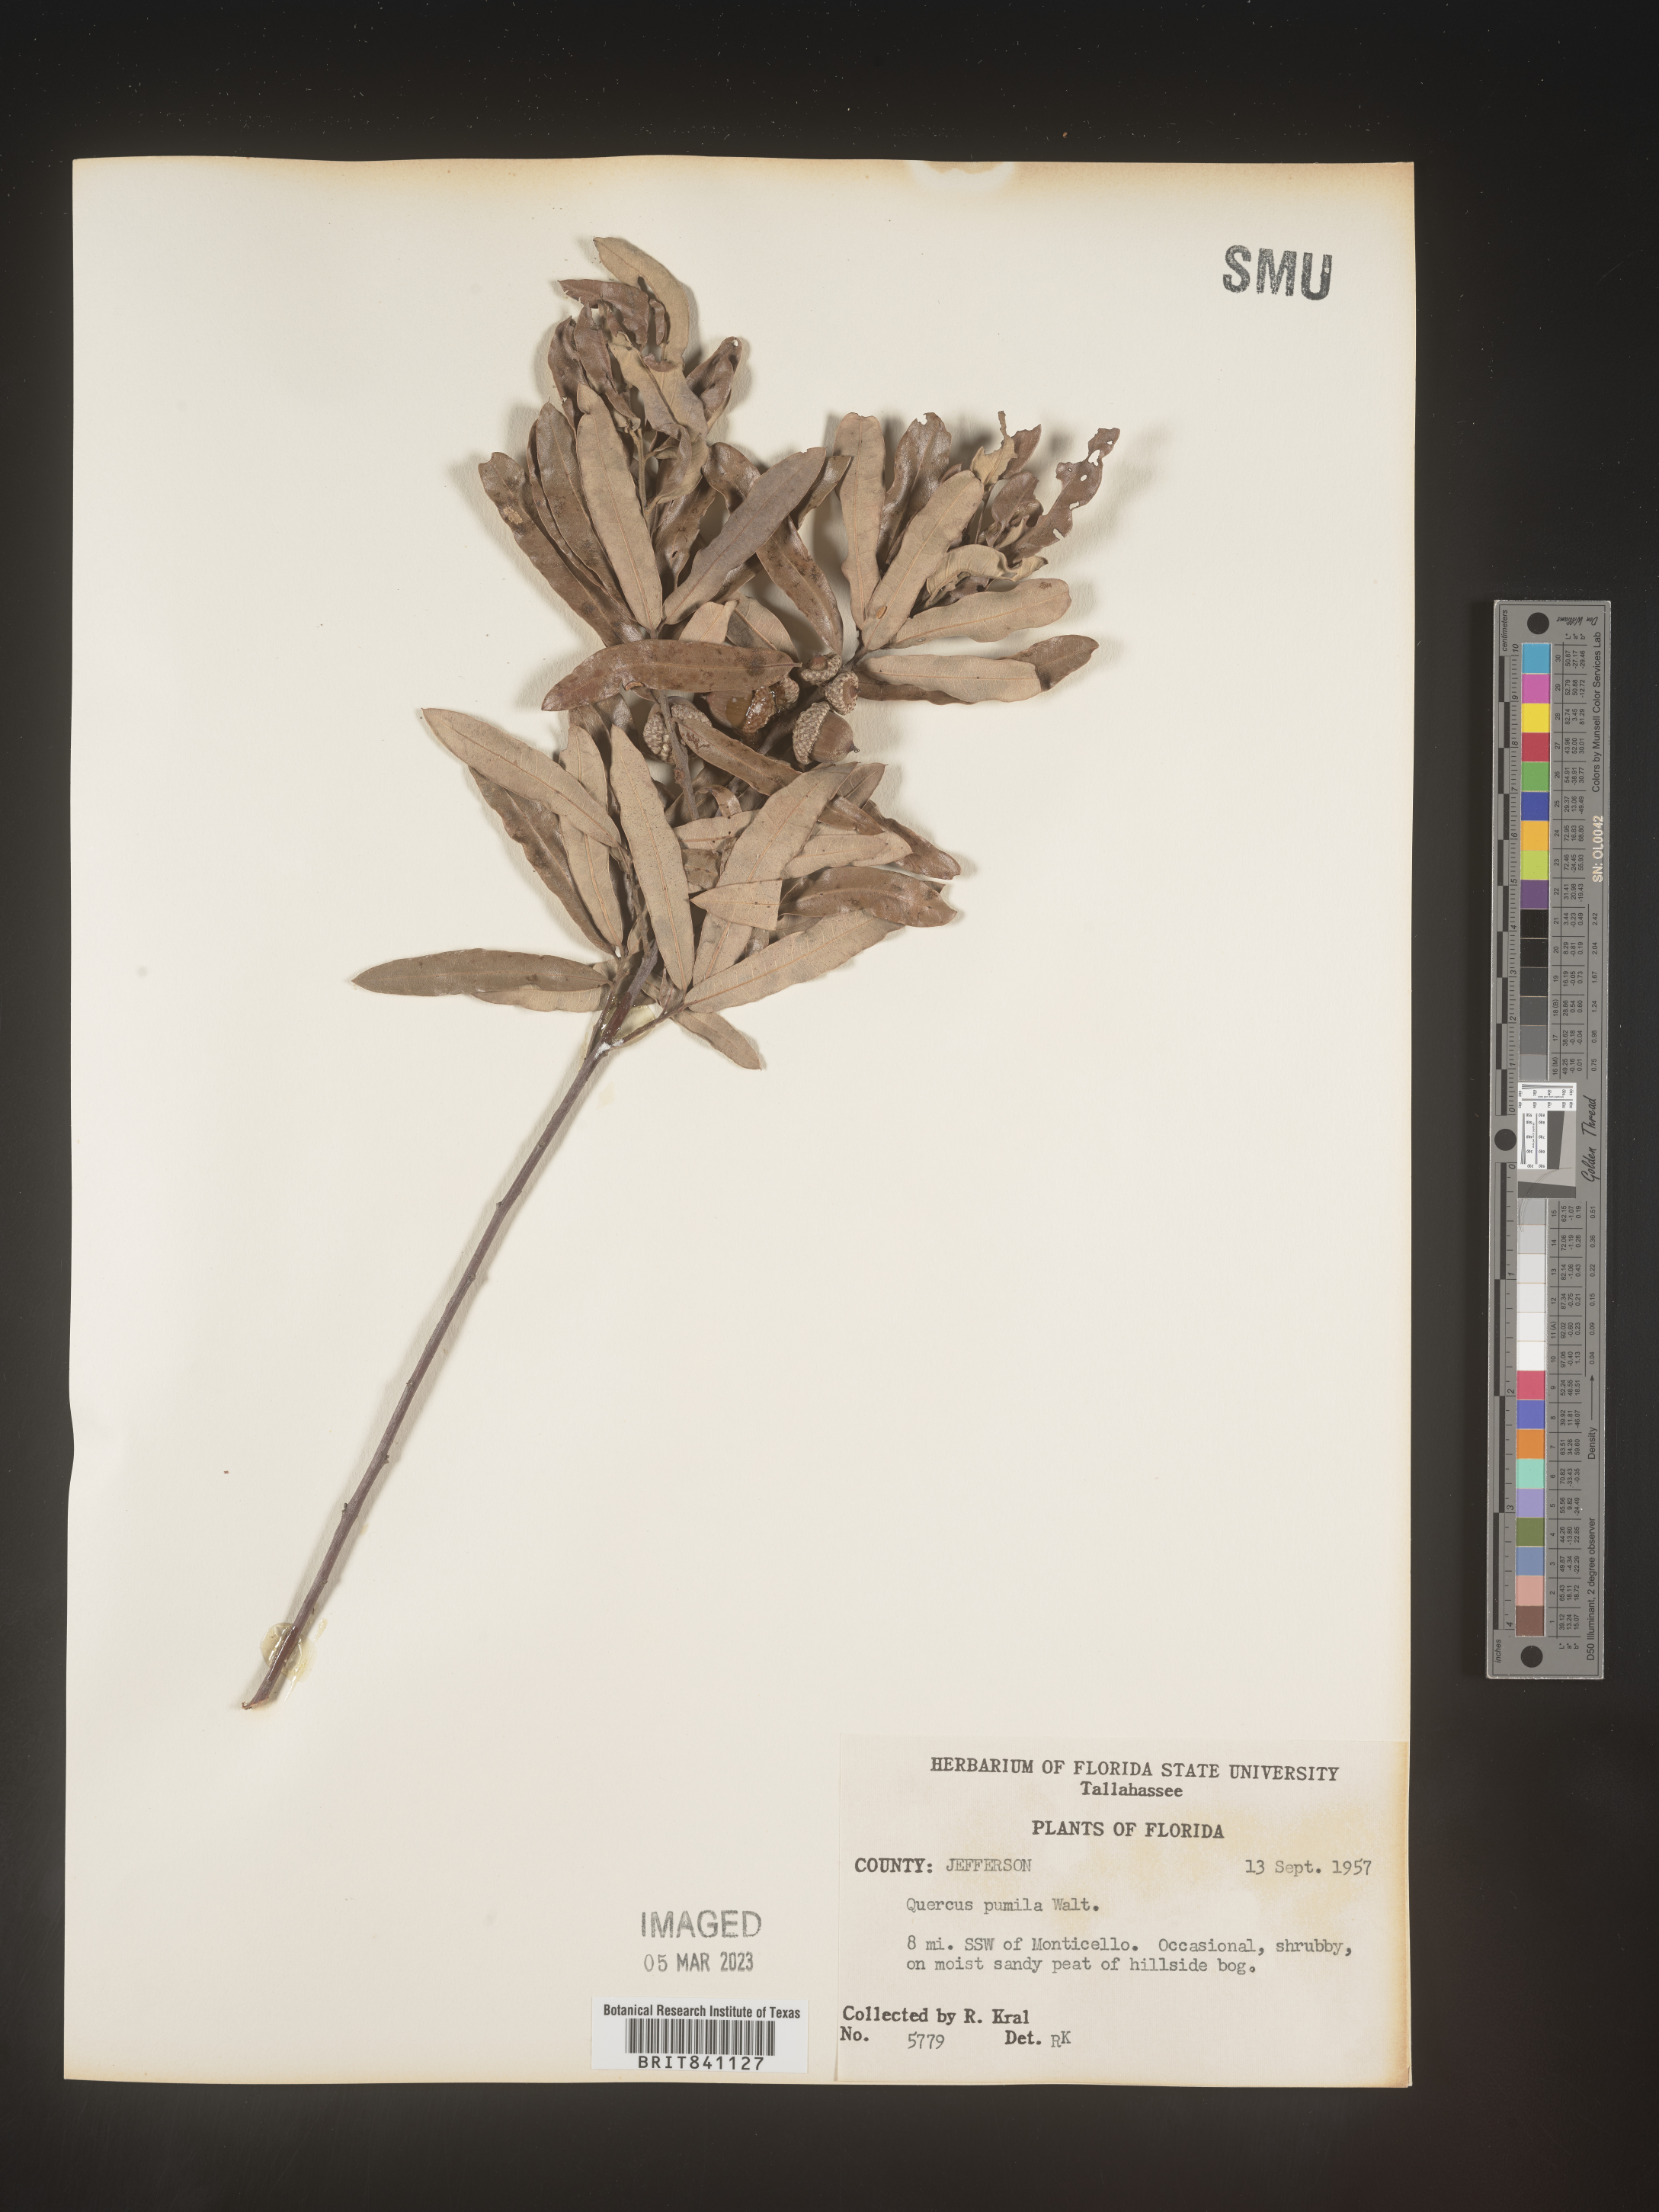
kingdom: Plantae
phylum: Tracheophyta
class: Magnoliopsida
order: Fagales
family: Fagaceae
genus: Quercus
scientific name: Quercus pumila
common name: Runner oak
